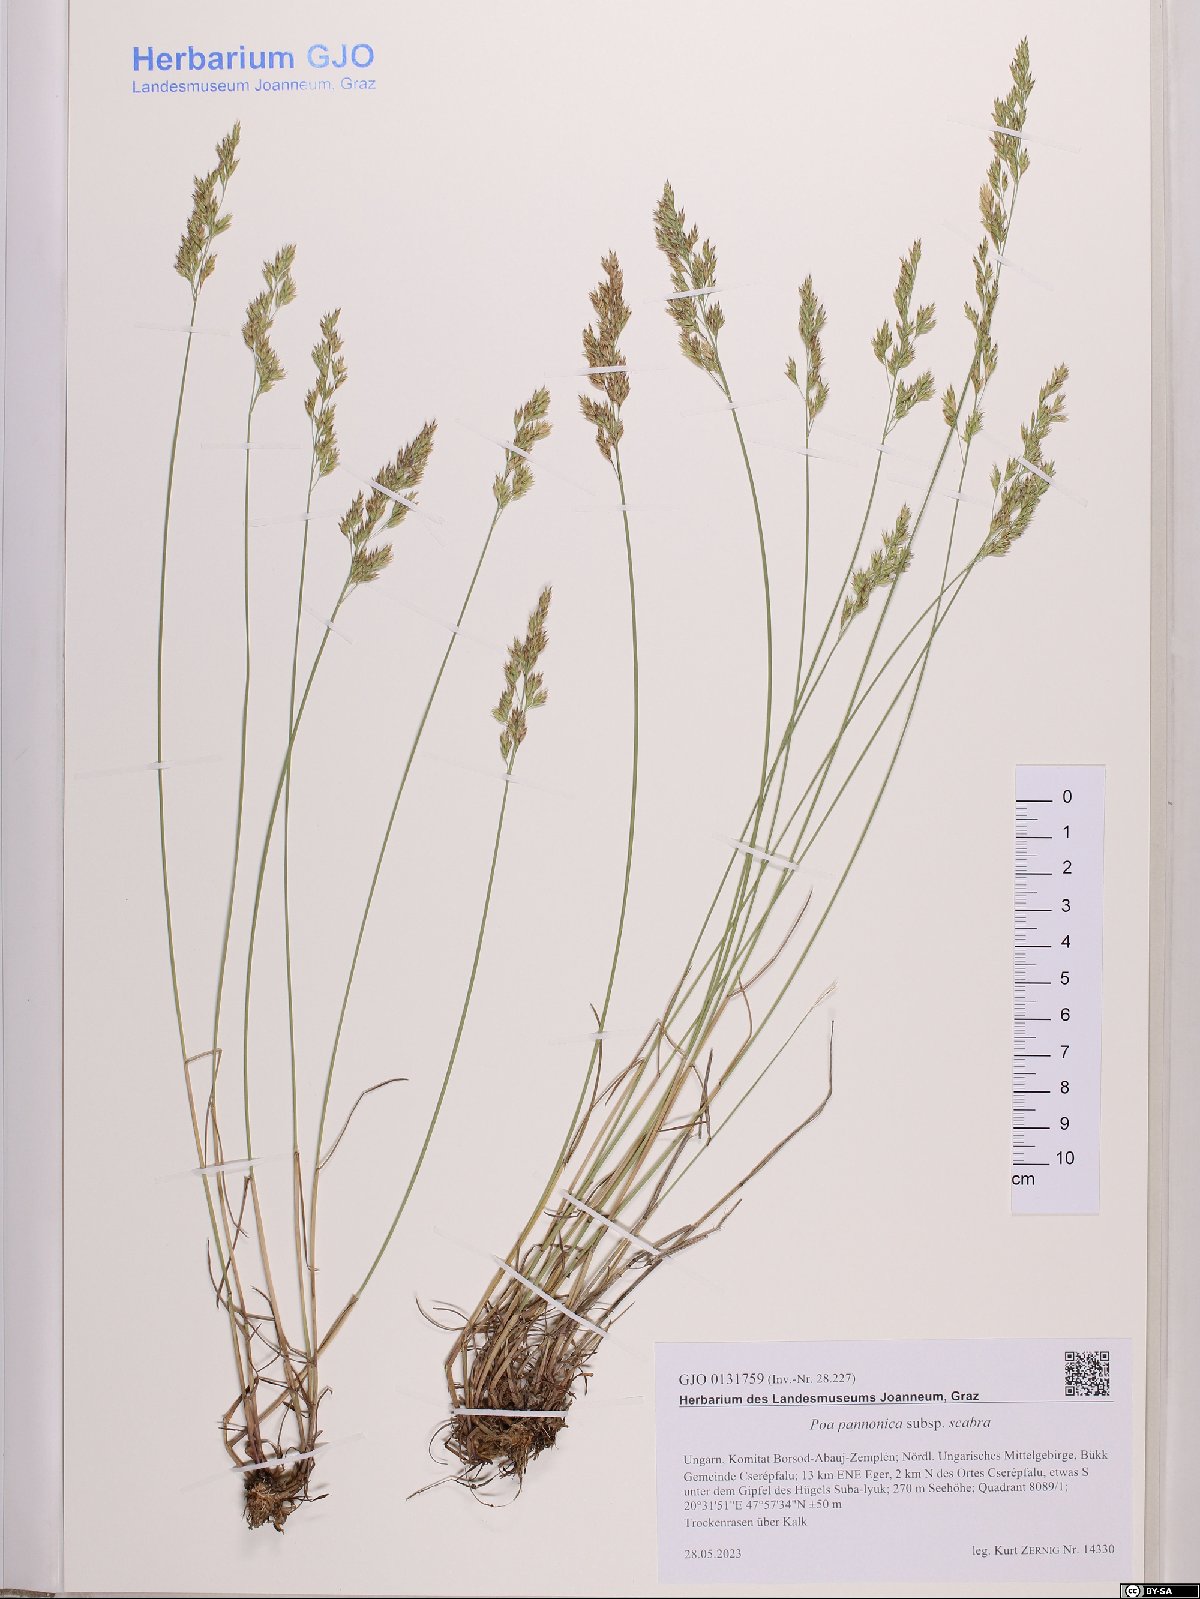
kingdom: Plantae
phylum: Tracheophyta
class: Liliopsida
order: Poales
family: Poaceae
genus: Poa
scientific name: Poa pannonica
